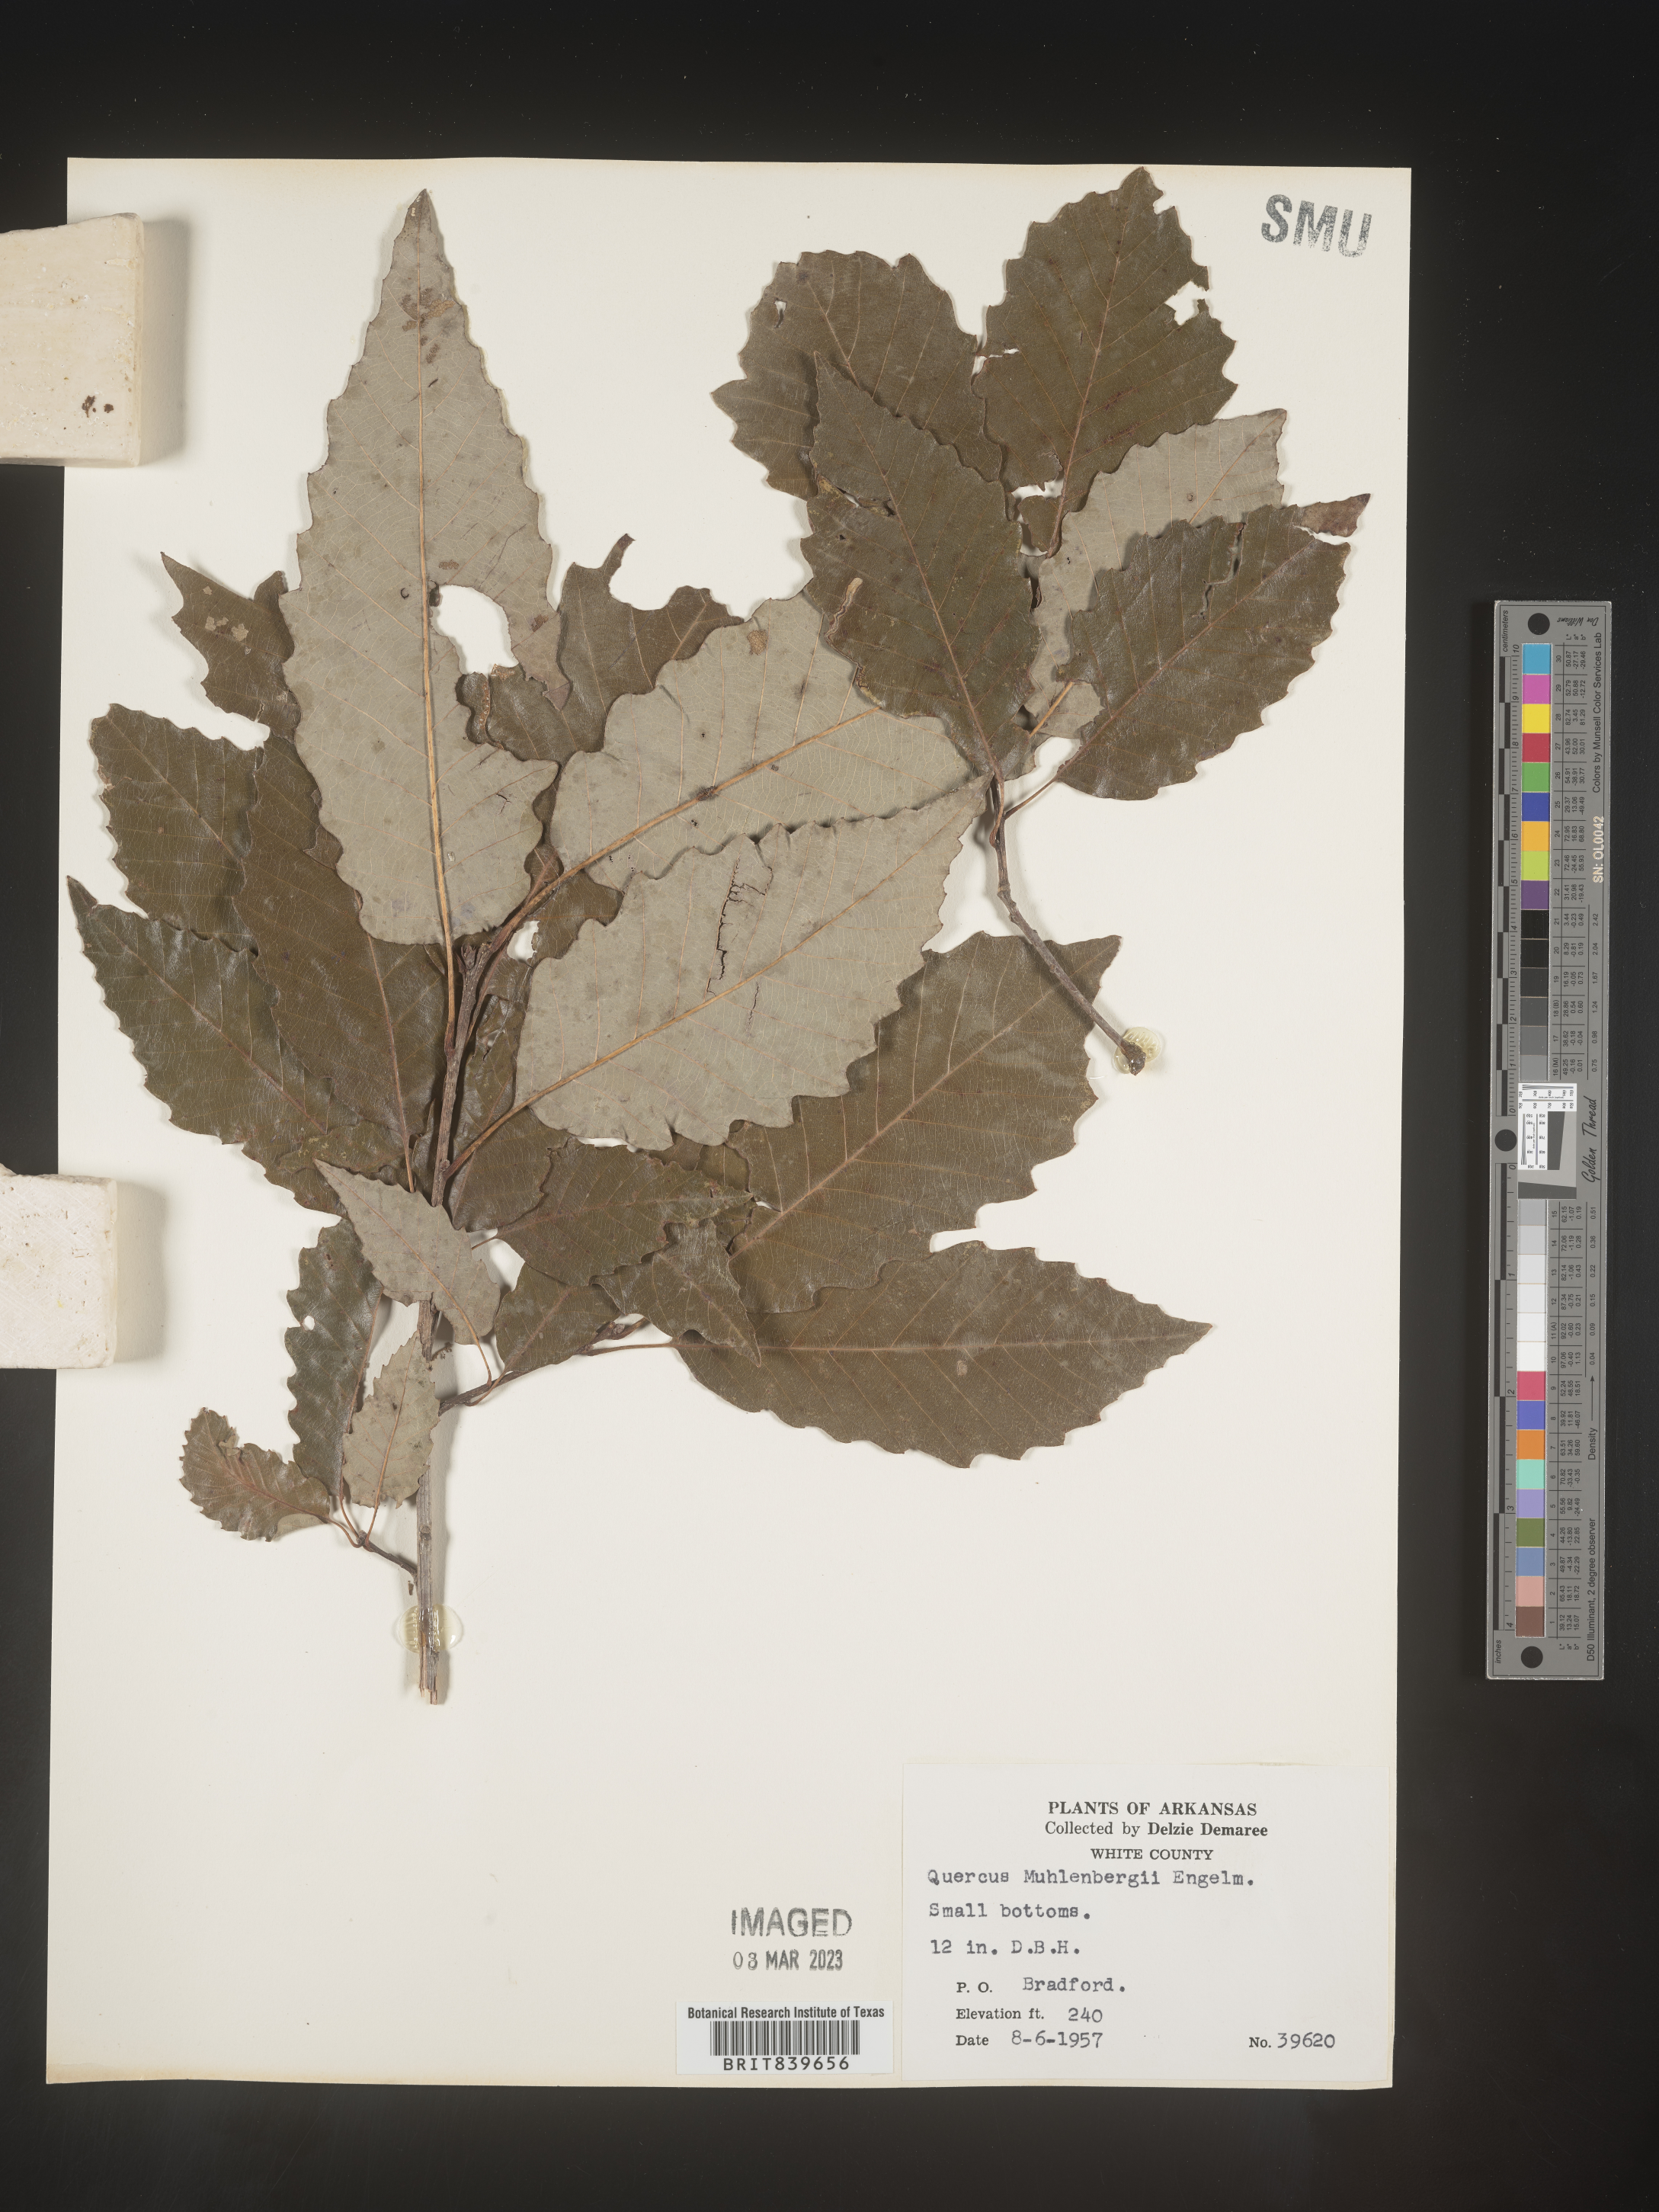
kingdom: Plantae
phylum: Tracheophyta
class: Magnoliopsida
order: Fagales
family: Fagaceae
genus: Quercus
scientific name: Quercus muehlenbergii
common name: Chinkapin oak
